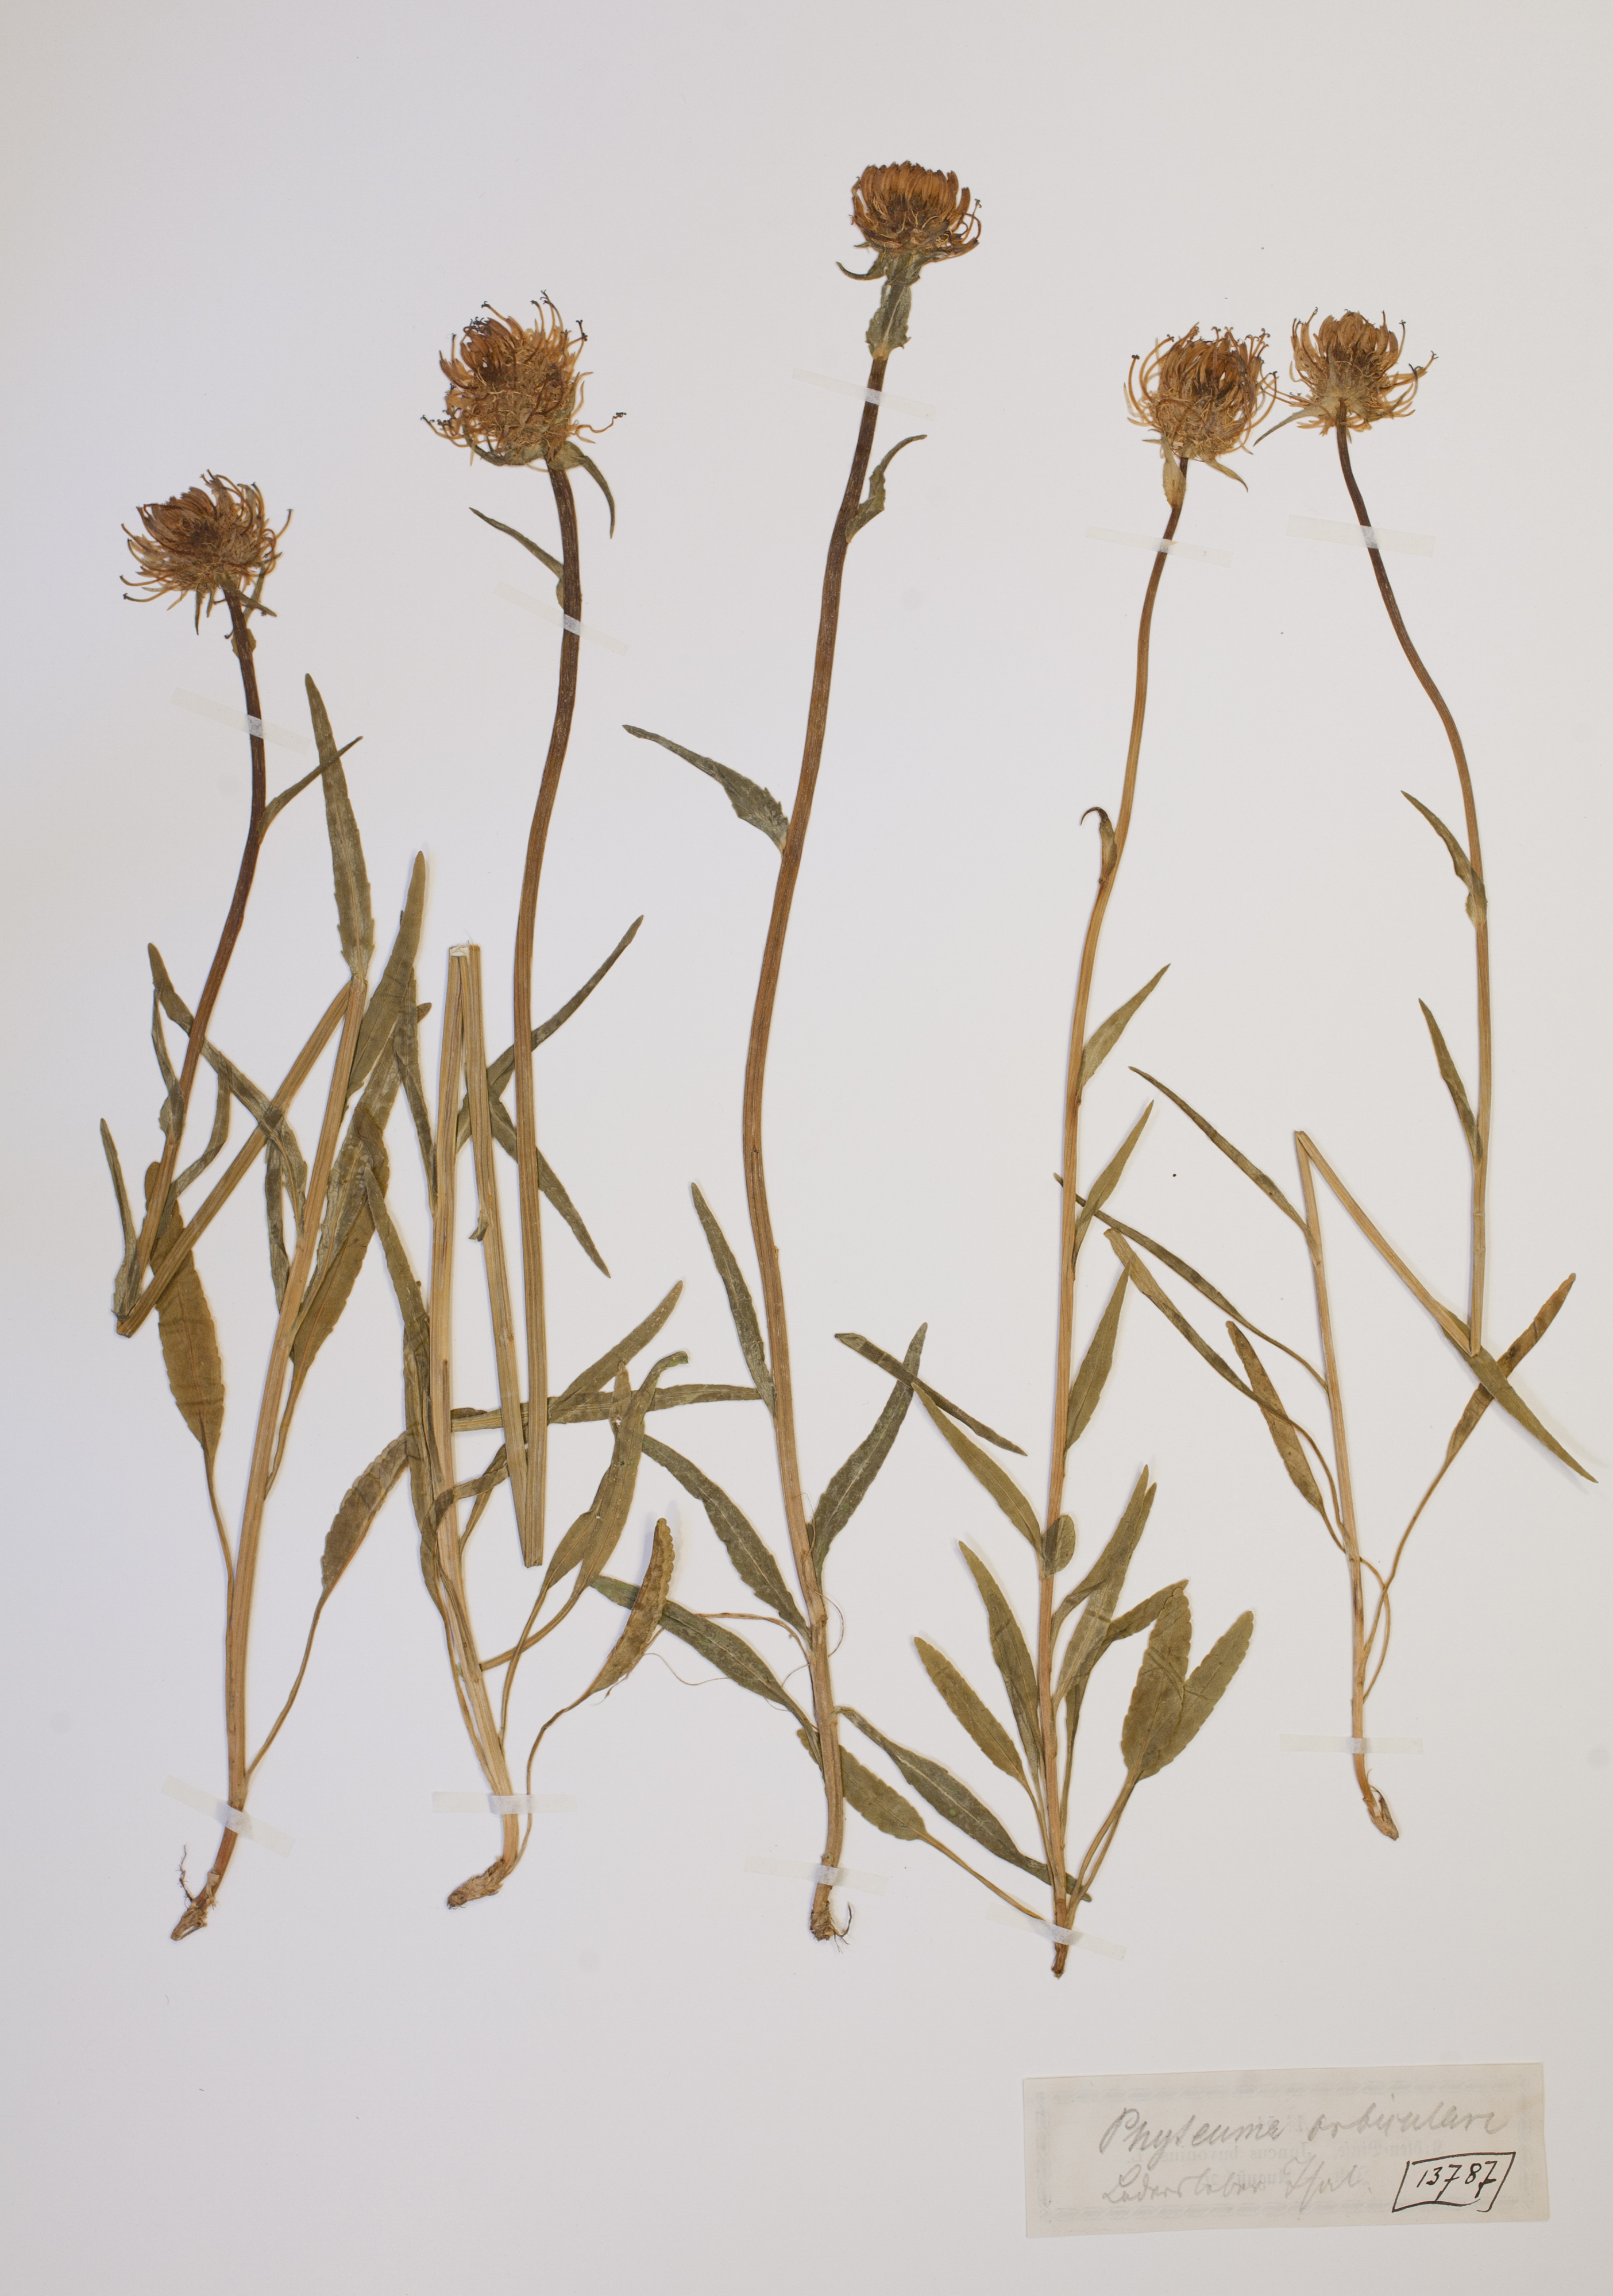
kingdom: Plantae
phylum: Tracheophyta
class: Magnoliopsida
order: Asterales
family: Campanulaceae
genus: Phyteuma
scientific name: Phyteuma orbiculare
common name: Round-headed rampion
